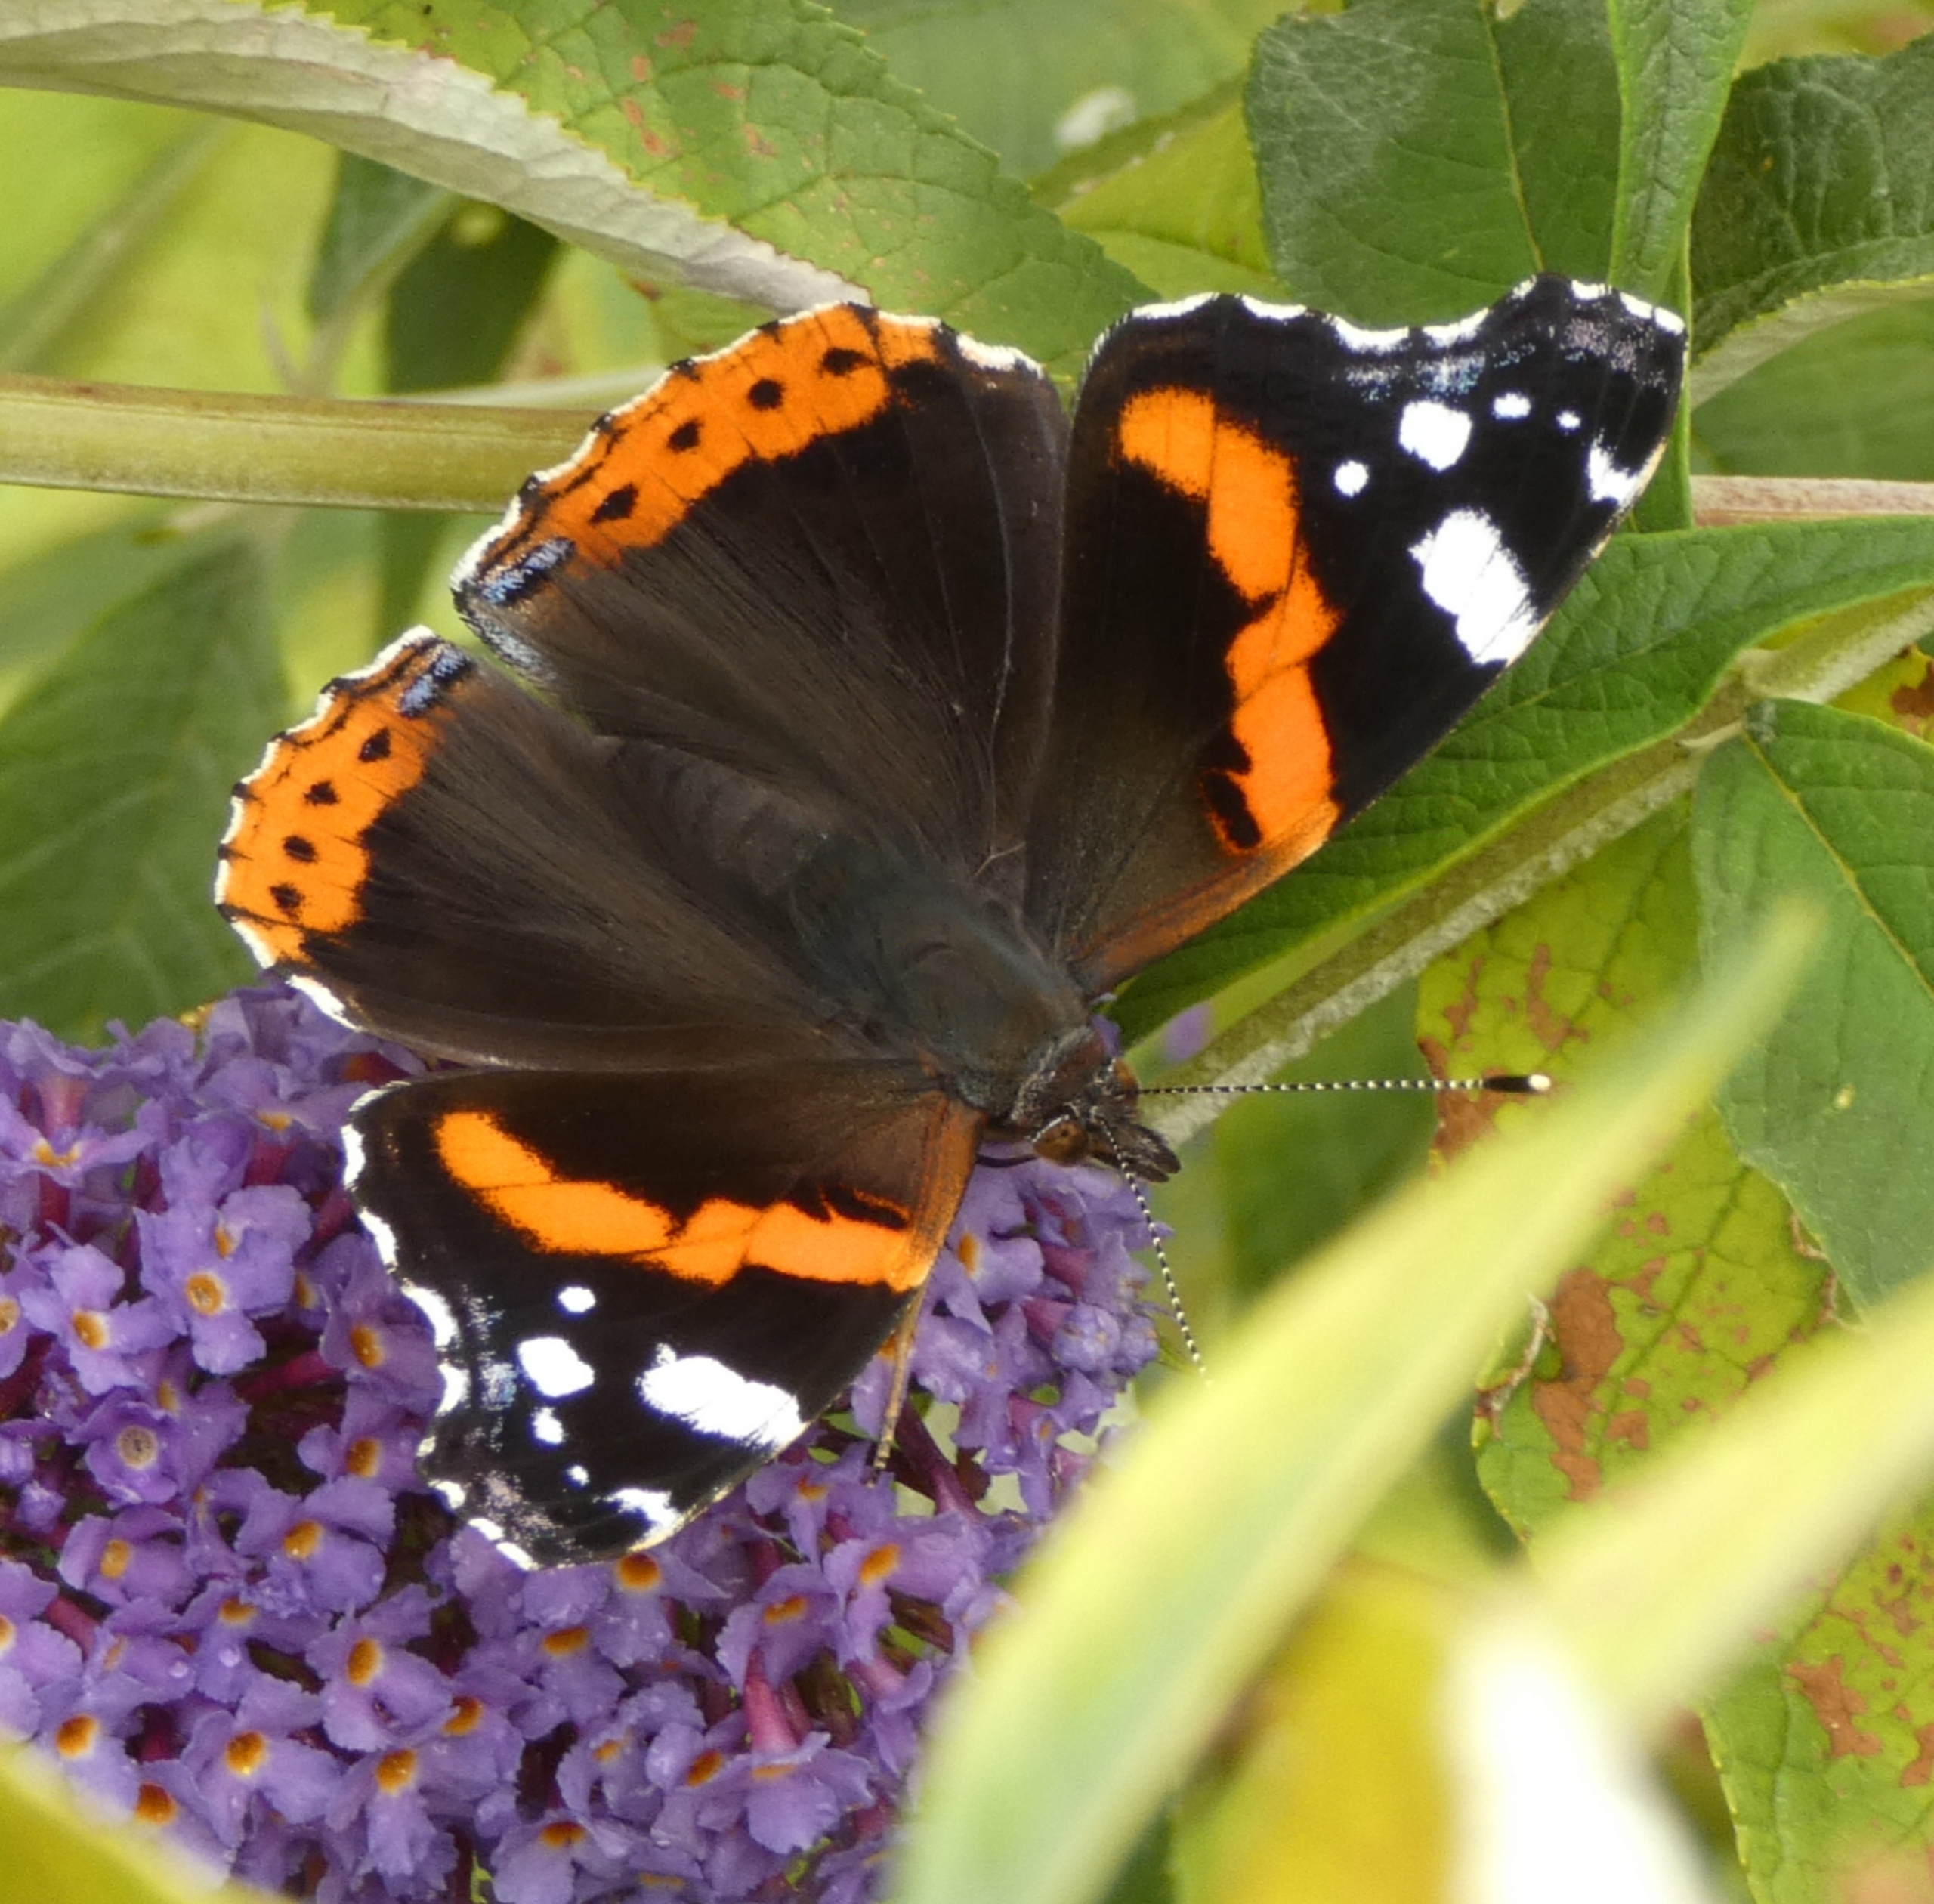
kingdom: Animalia
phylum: Arthropoda
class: Insecta
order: Lepidoptera
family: Nymphalidae
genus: Vanessa
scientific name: Vanessa atalanta
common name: Admiral
